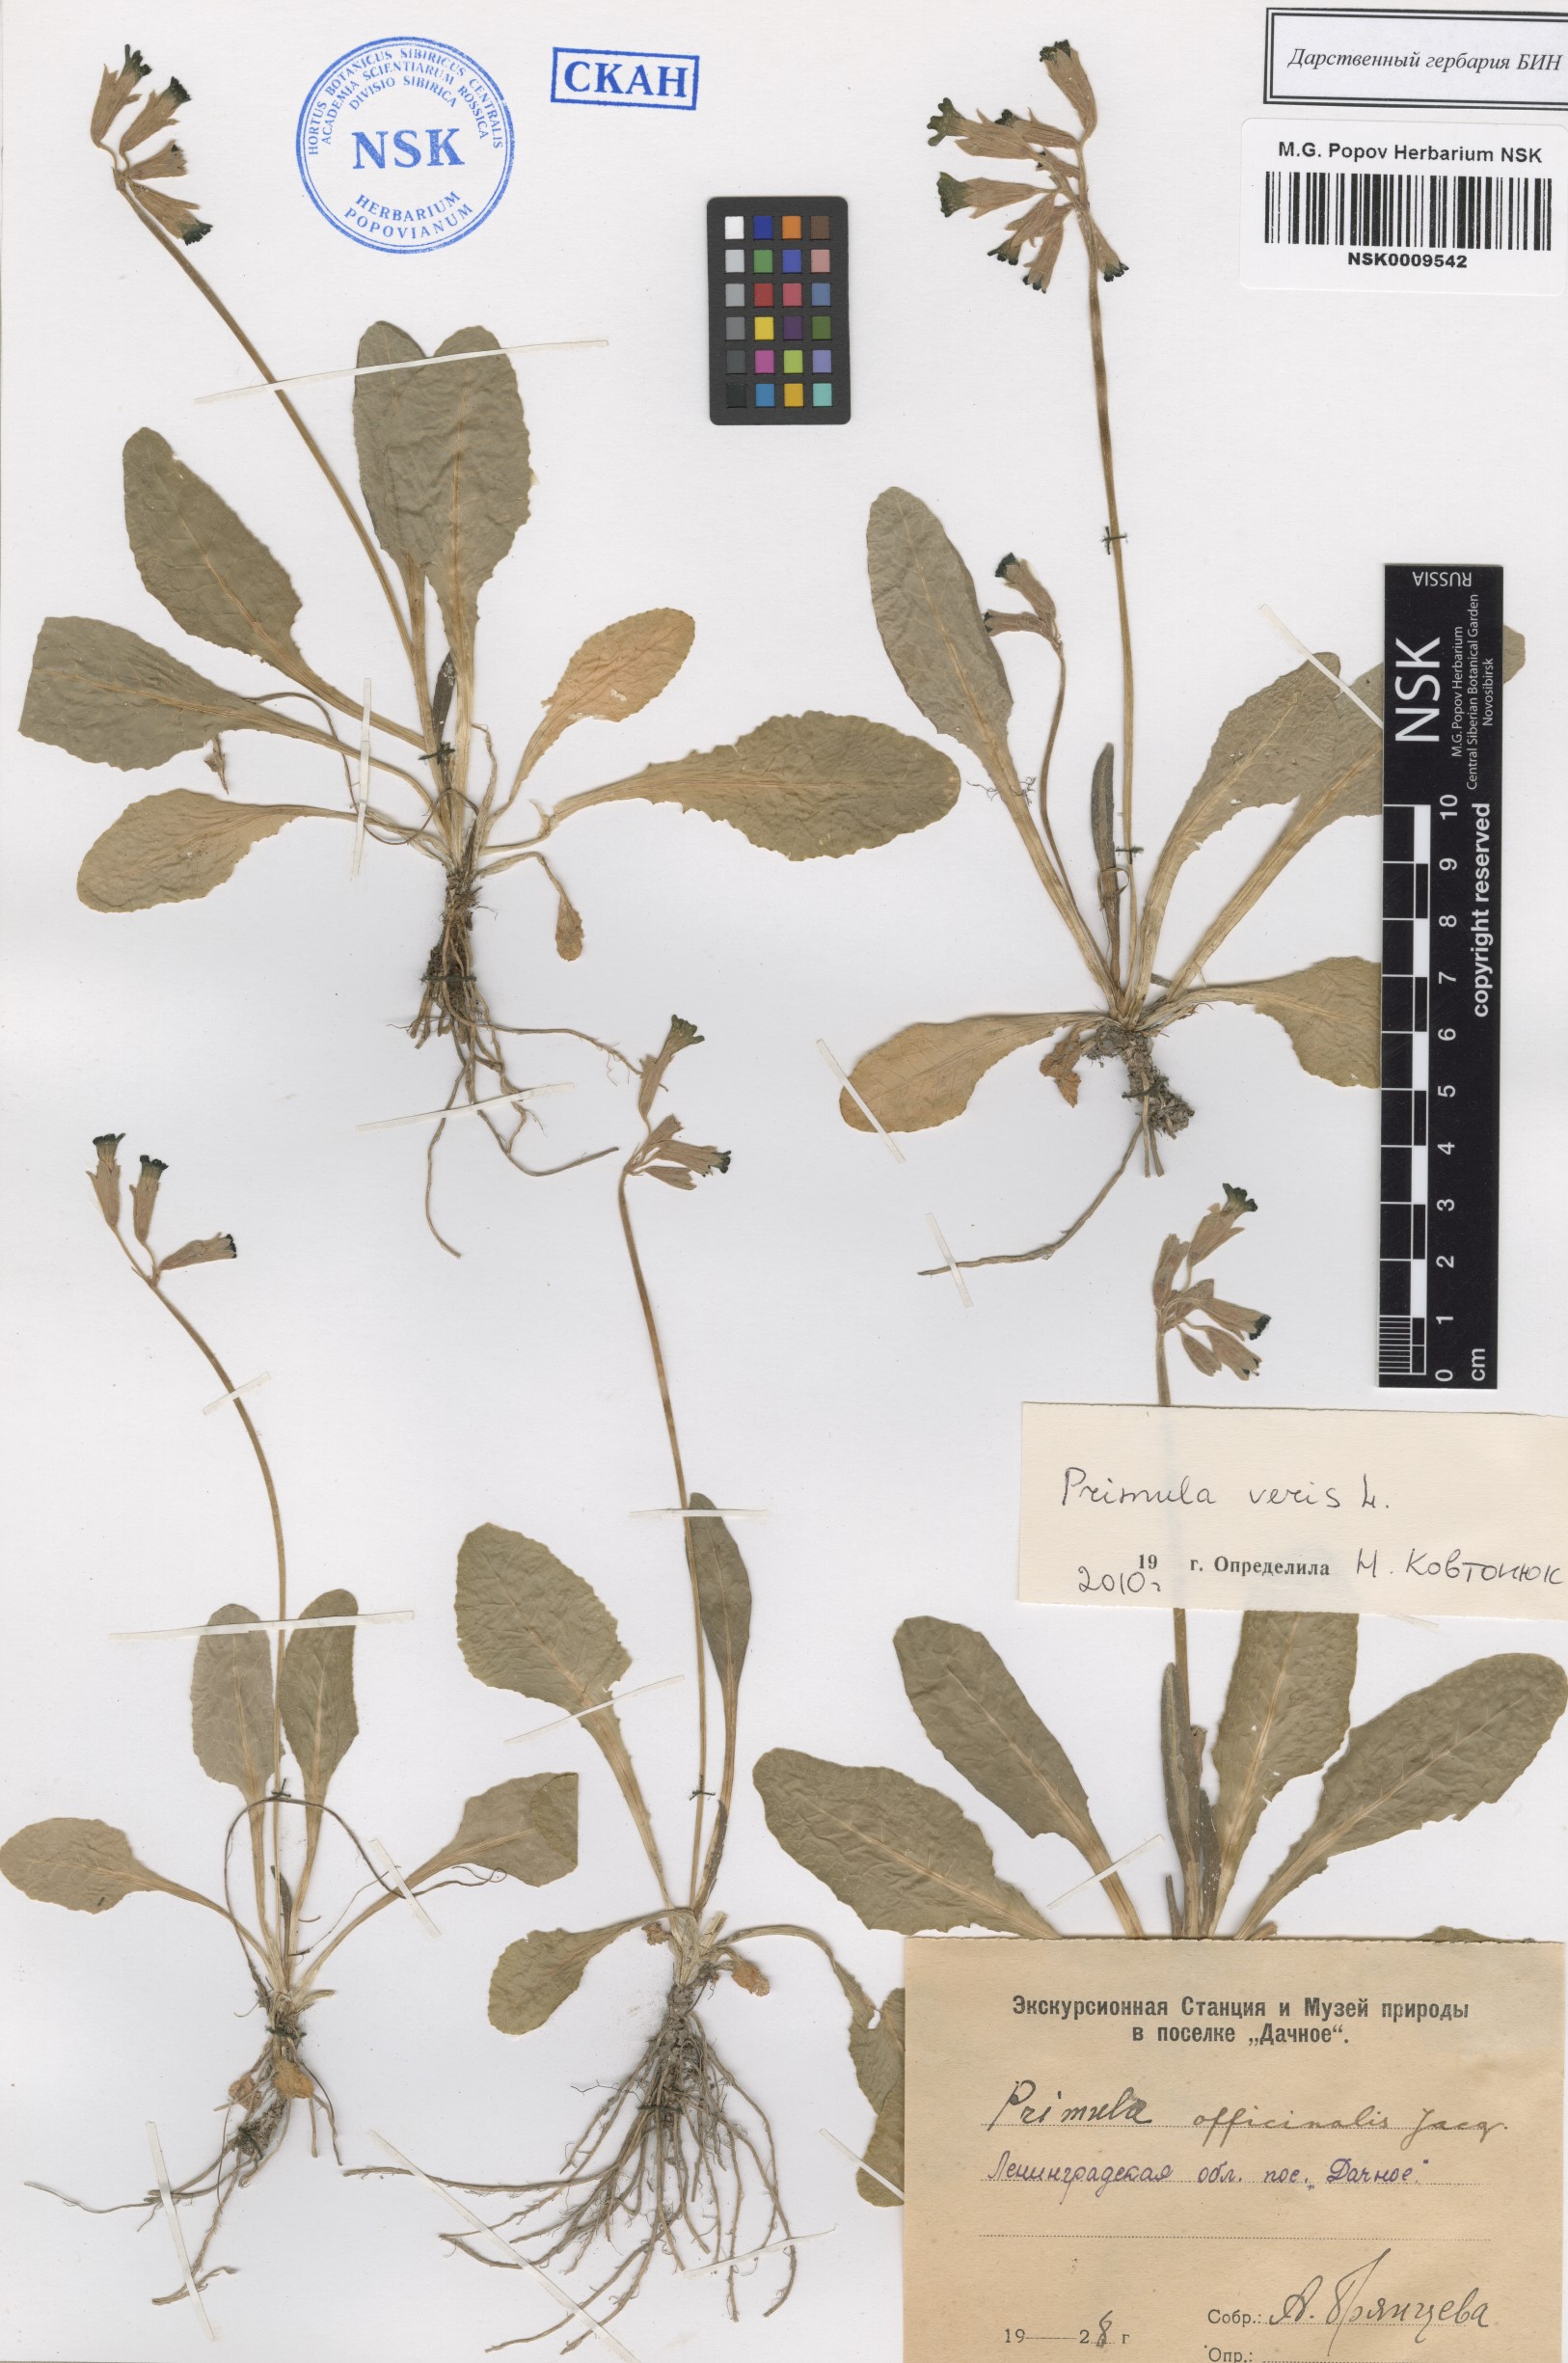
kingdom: Plantae
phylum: Tracheophyta
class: Magnoliopsida
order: Ericales
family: Primulaceae
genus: Primula
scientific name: Primula veris
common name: Cowslip
